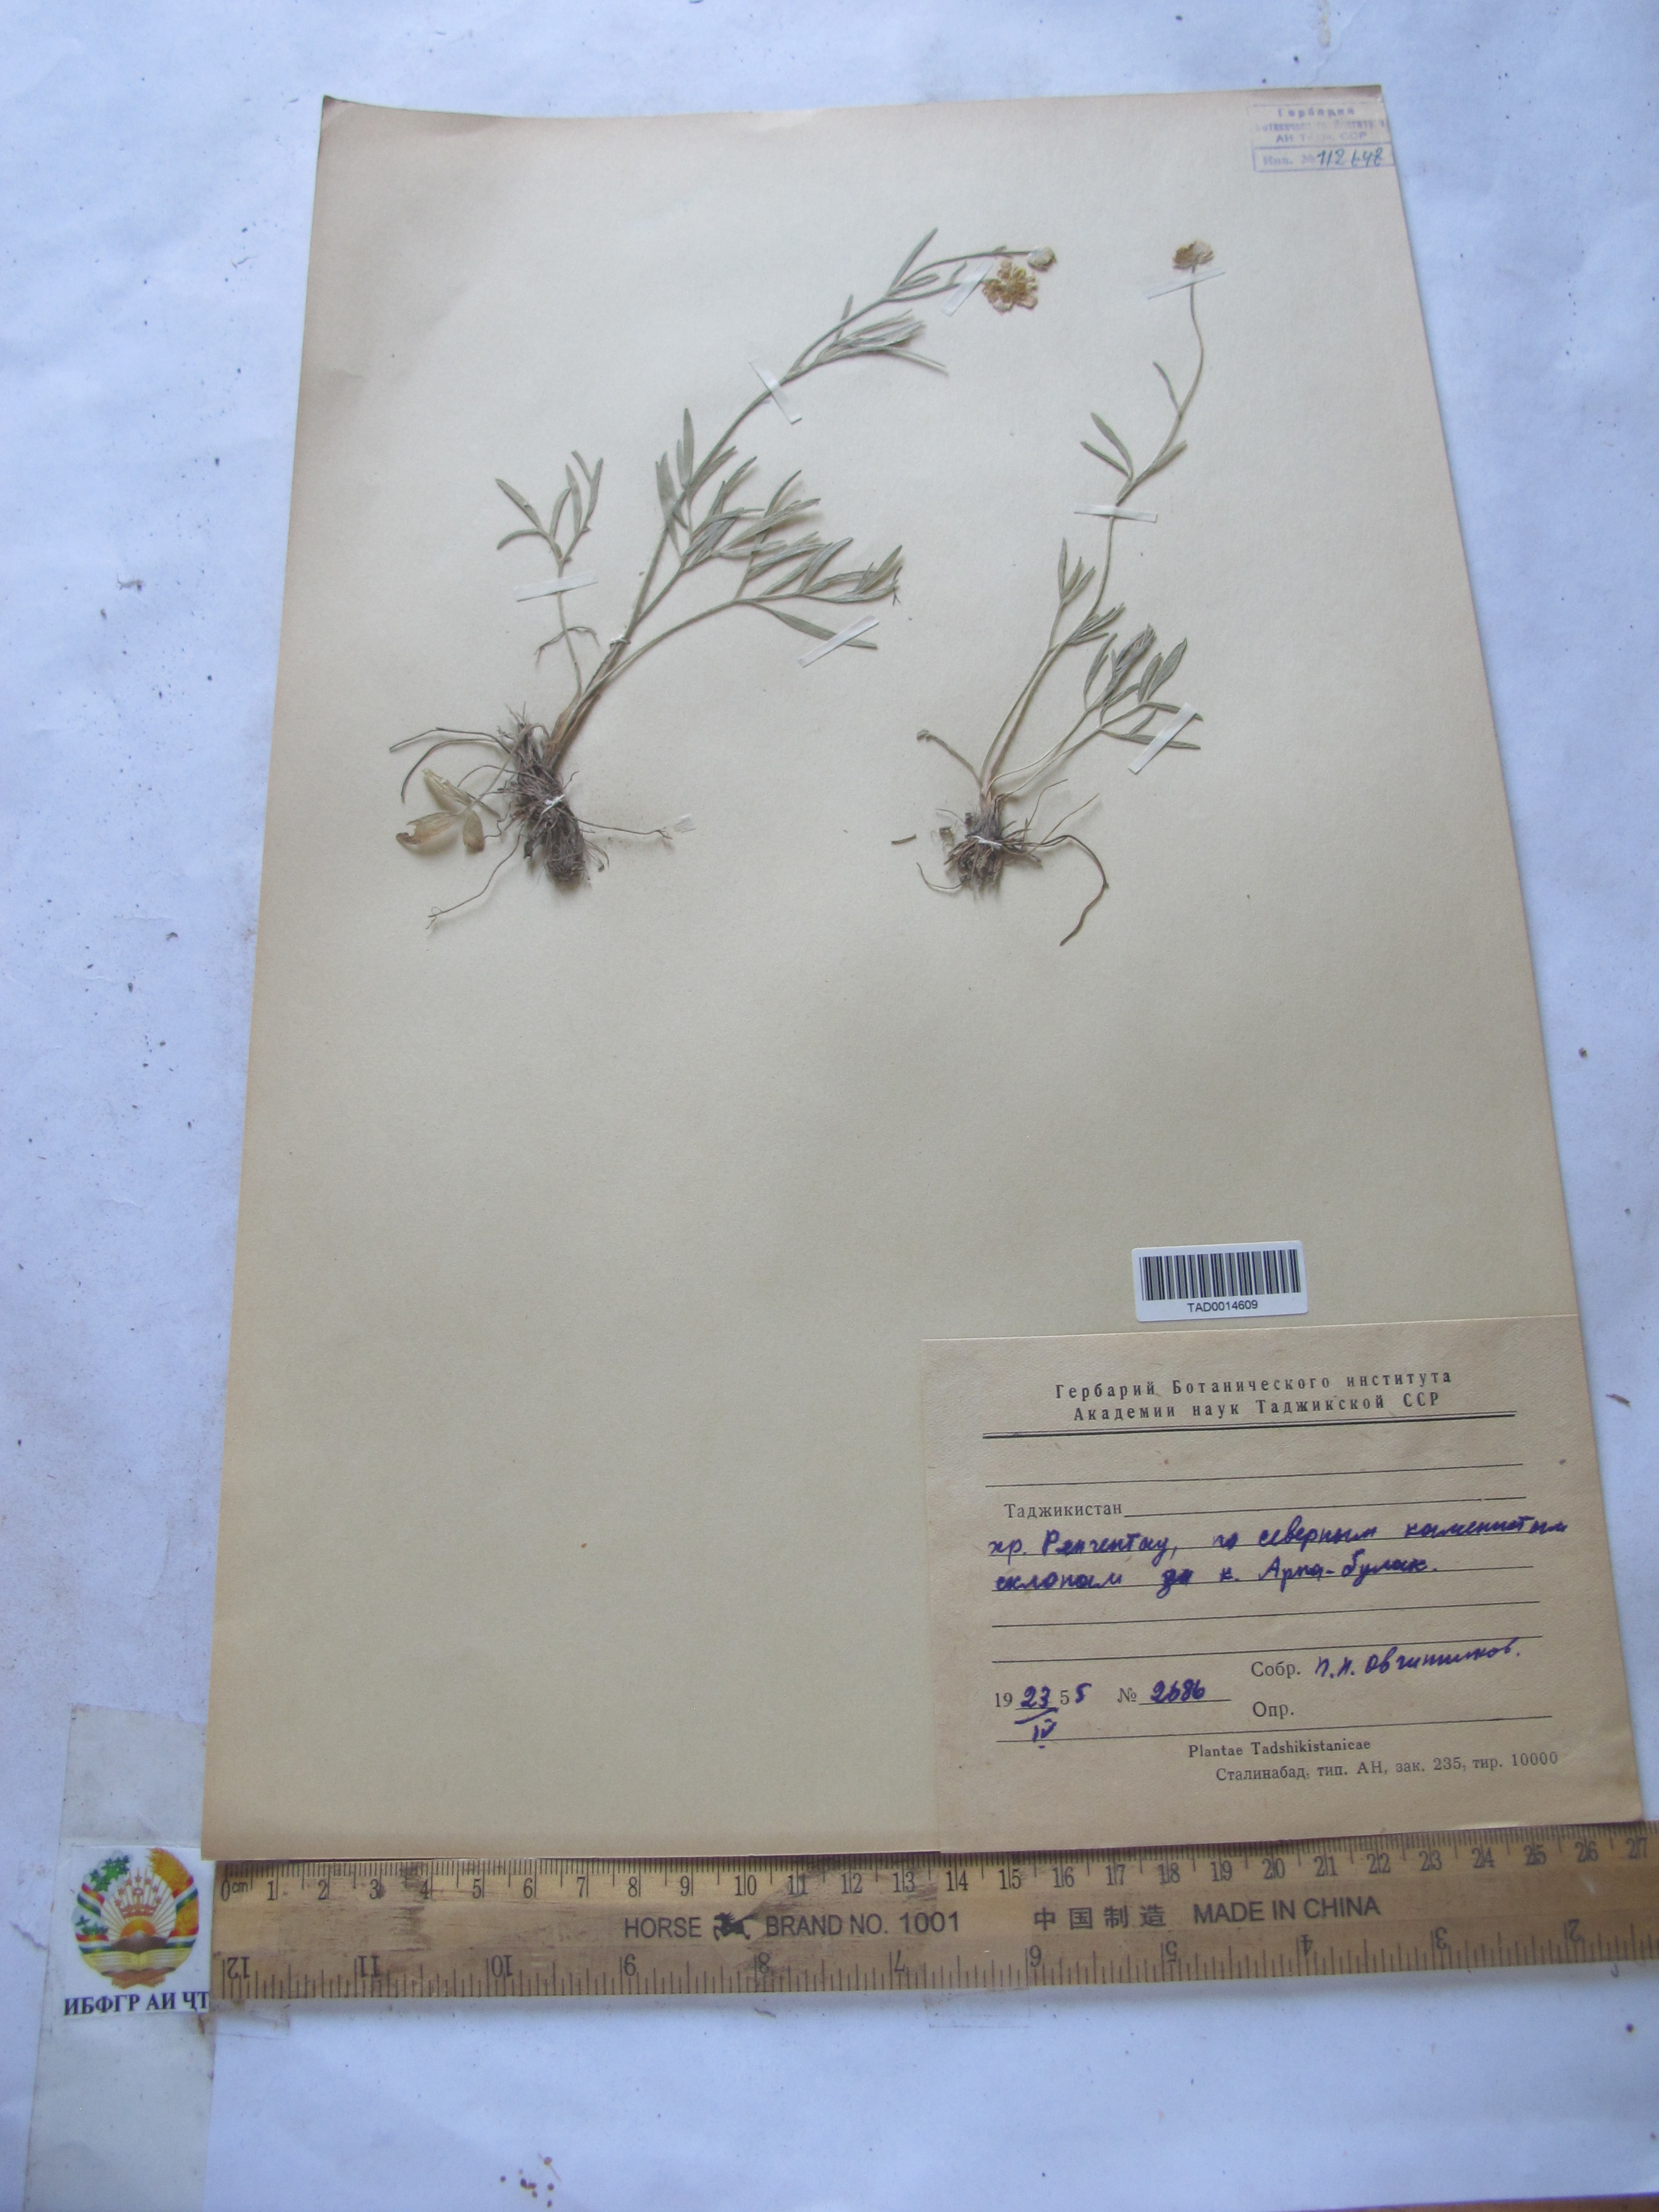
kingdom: Plantae
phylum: Tracheophyta
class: Magnoliopsida
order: Ranunculales
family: Ranunculaceae
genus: Ranunculus
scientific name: Ranunculus linearilobus
